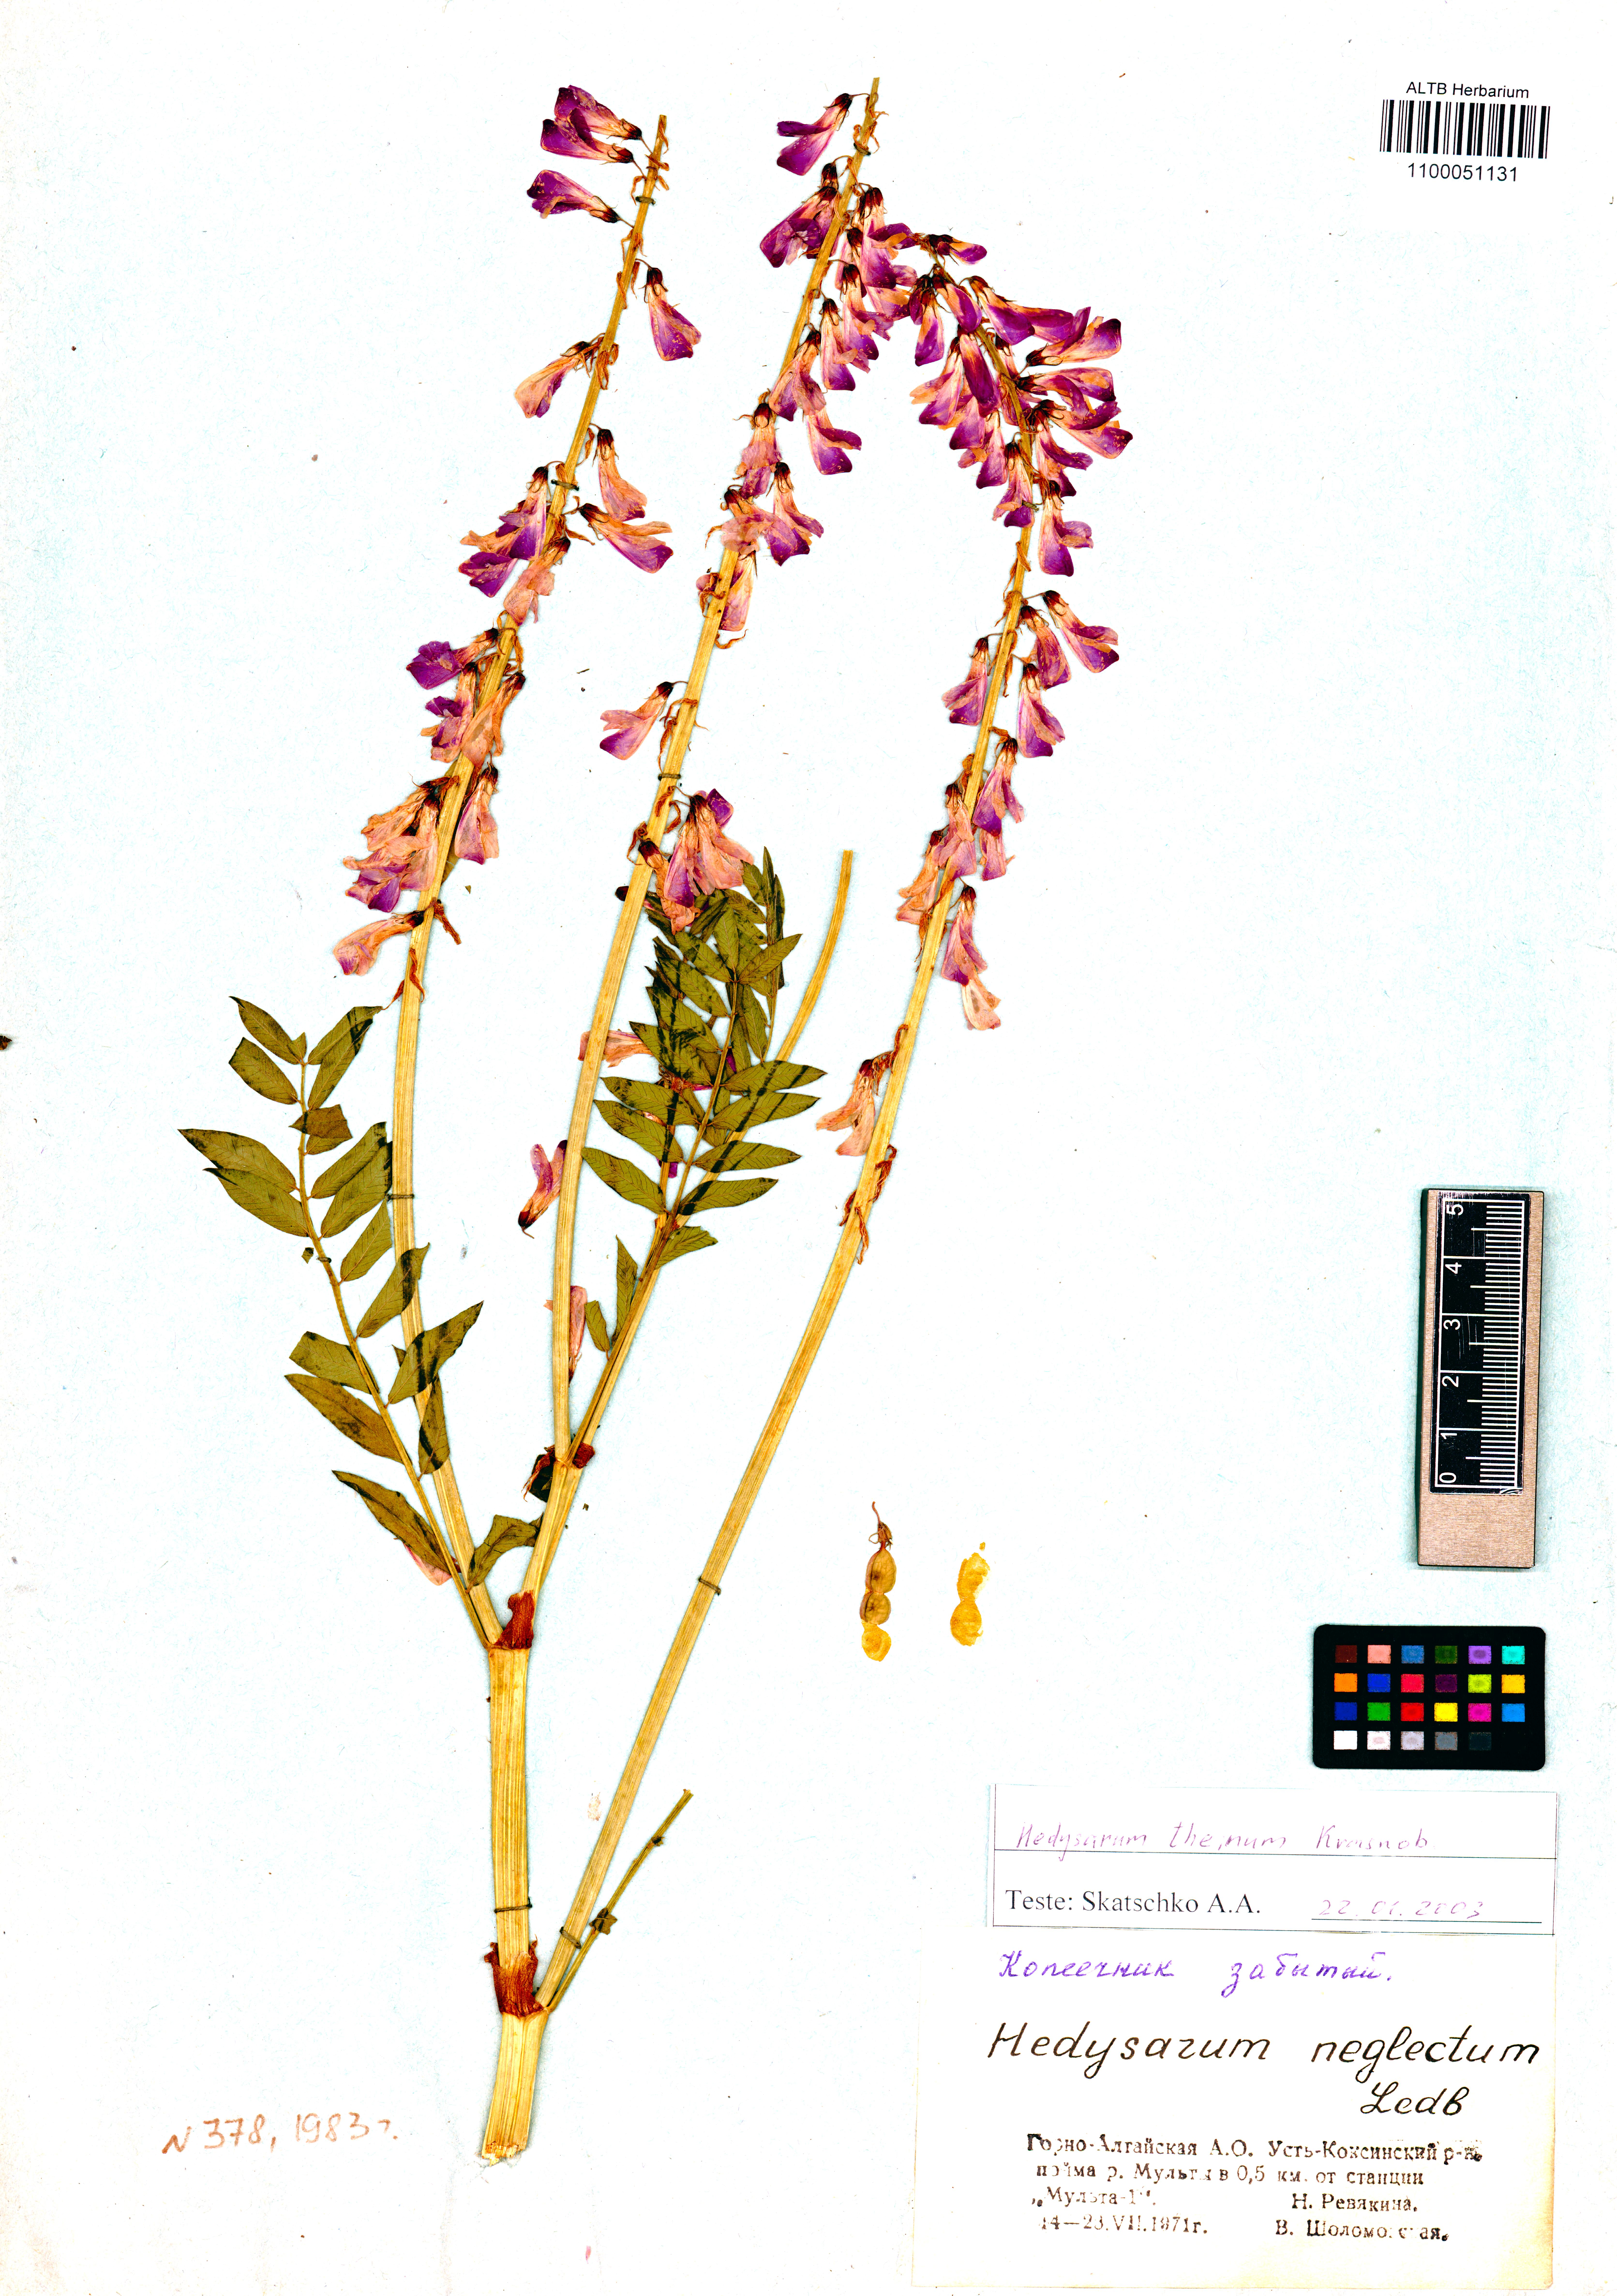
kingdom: Plantae
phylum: Tracheophyta
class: Magnoliopsida
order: Fabales
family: Fabaceae
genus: Hedysarum
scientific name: Hedysarum theinum
